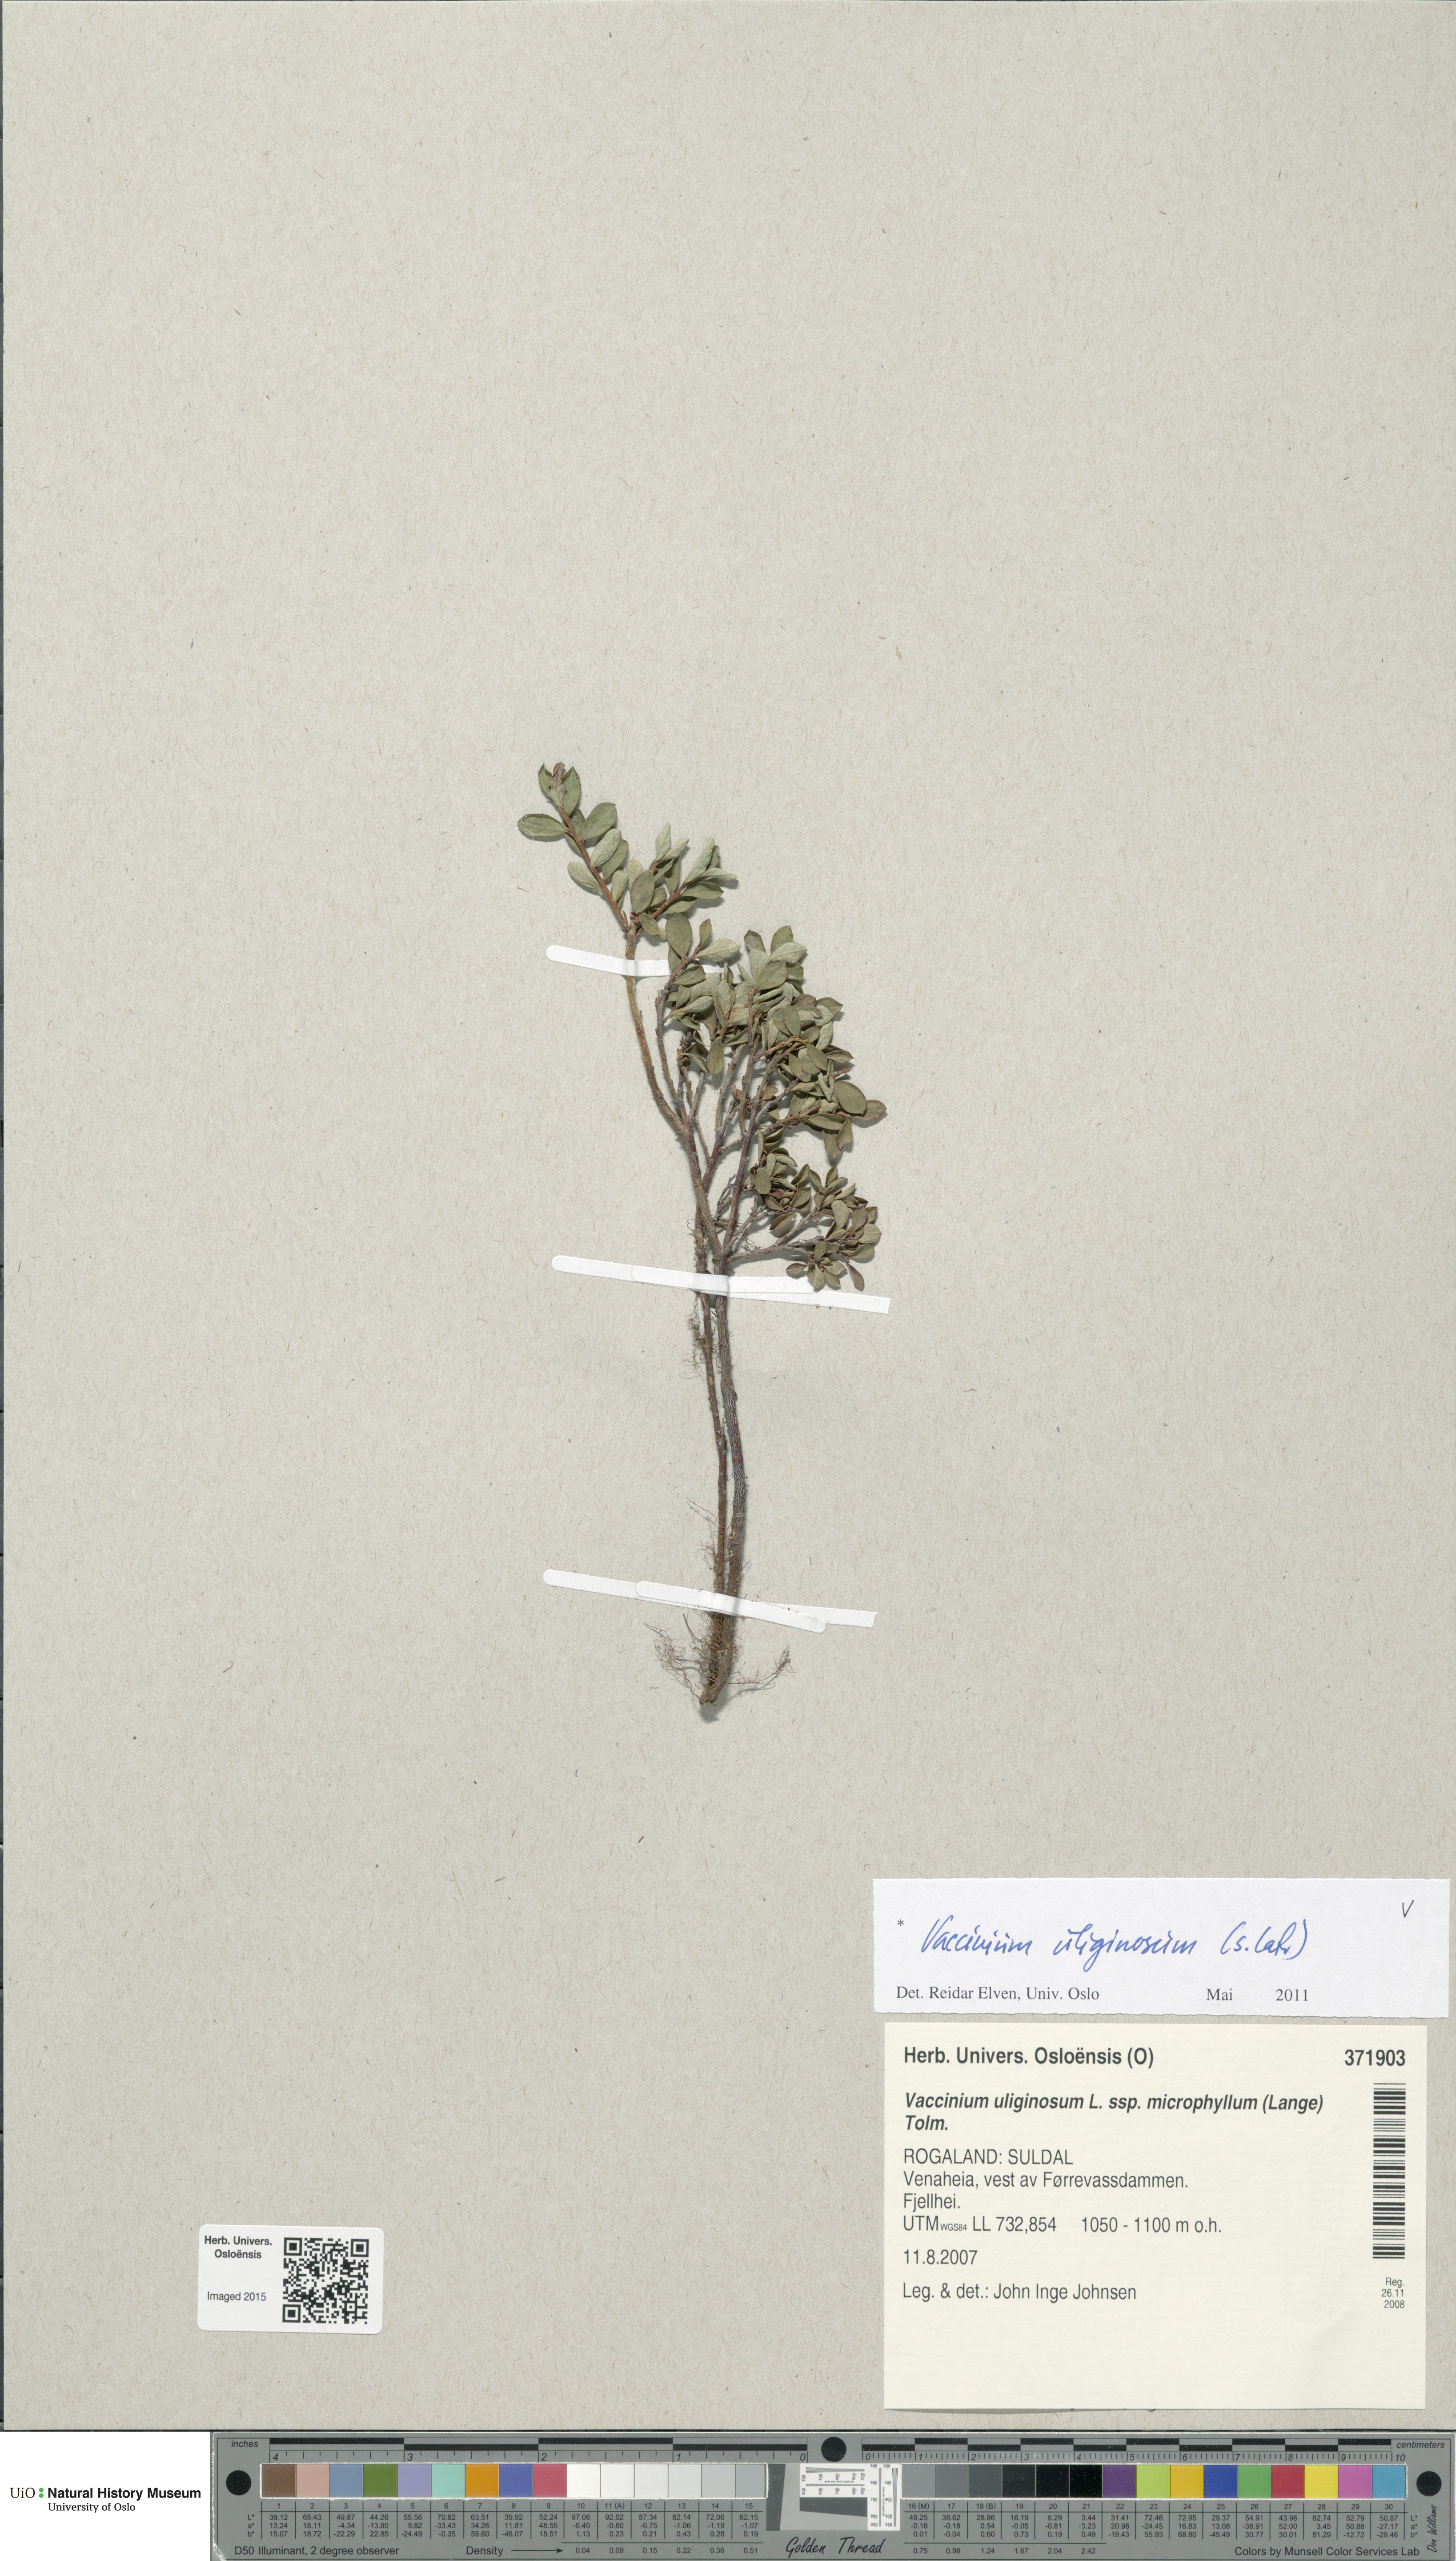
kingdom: Plantae
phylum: Tracheophyta
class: Magnoliopsida
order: Ericales
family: Ericaceae
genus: Vaccinium
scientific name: Vaccinium uliginosum
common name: Bog bilberry
